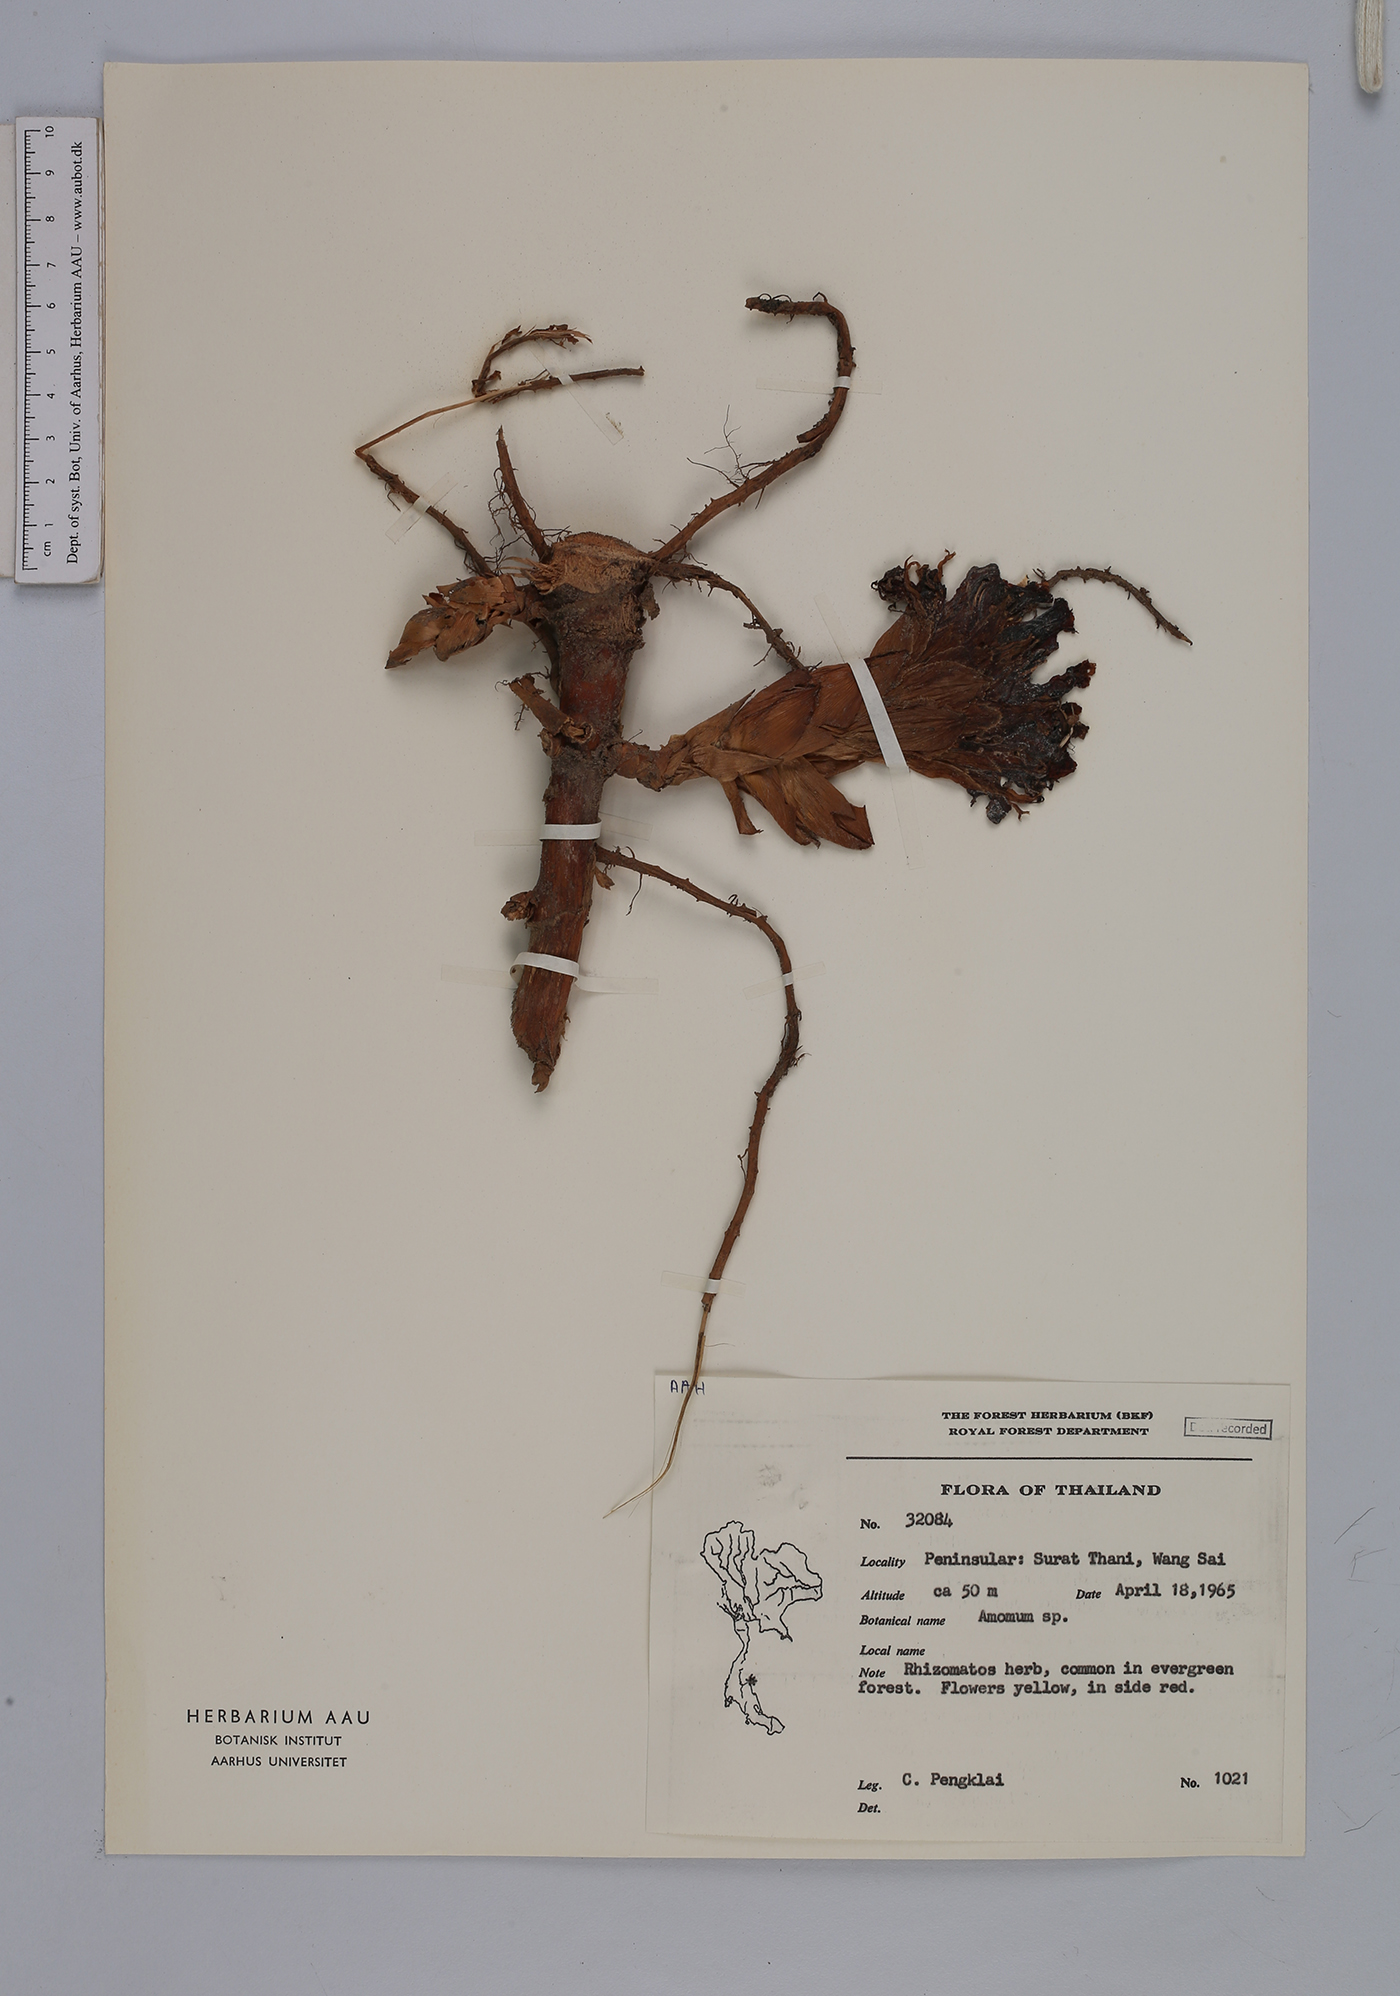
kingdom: Plantae
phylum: Tracheophyta
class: Liliopsida
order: Zingiberales
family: Zingiberaceae
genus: Amomum
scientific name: Amomum
